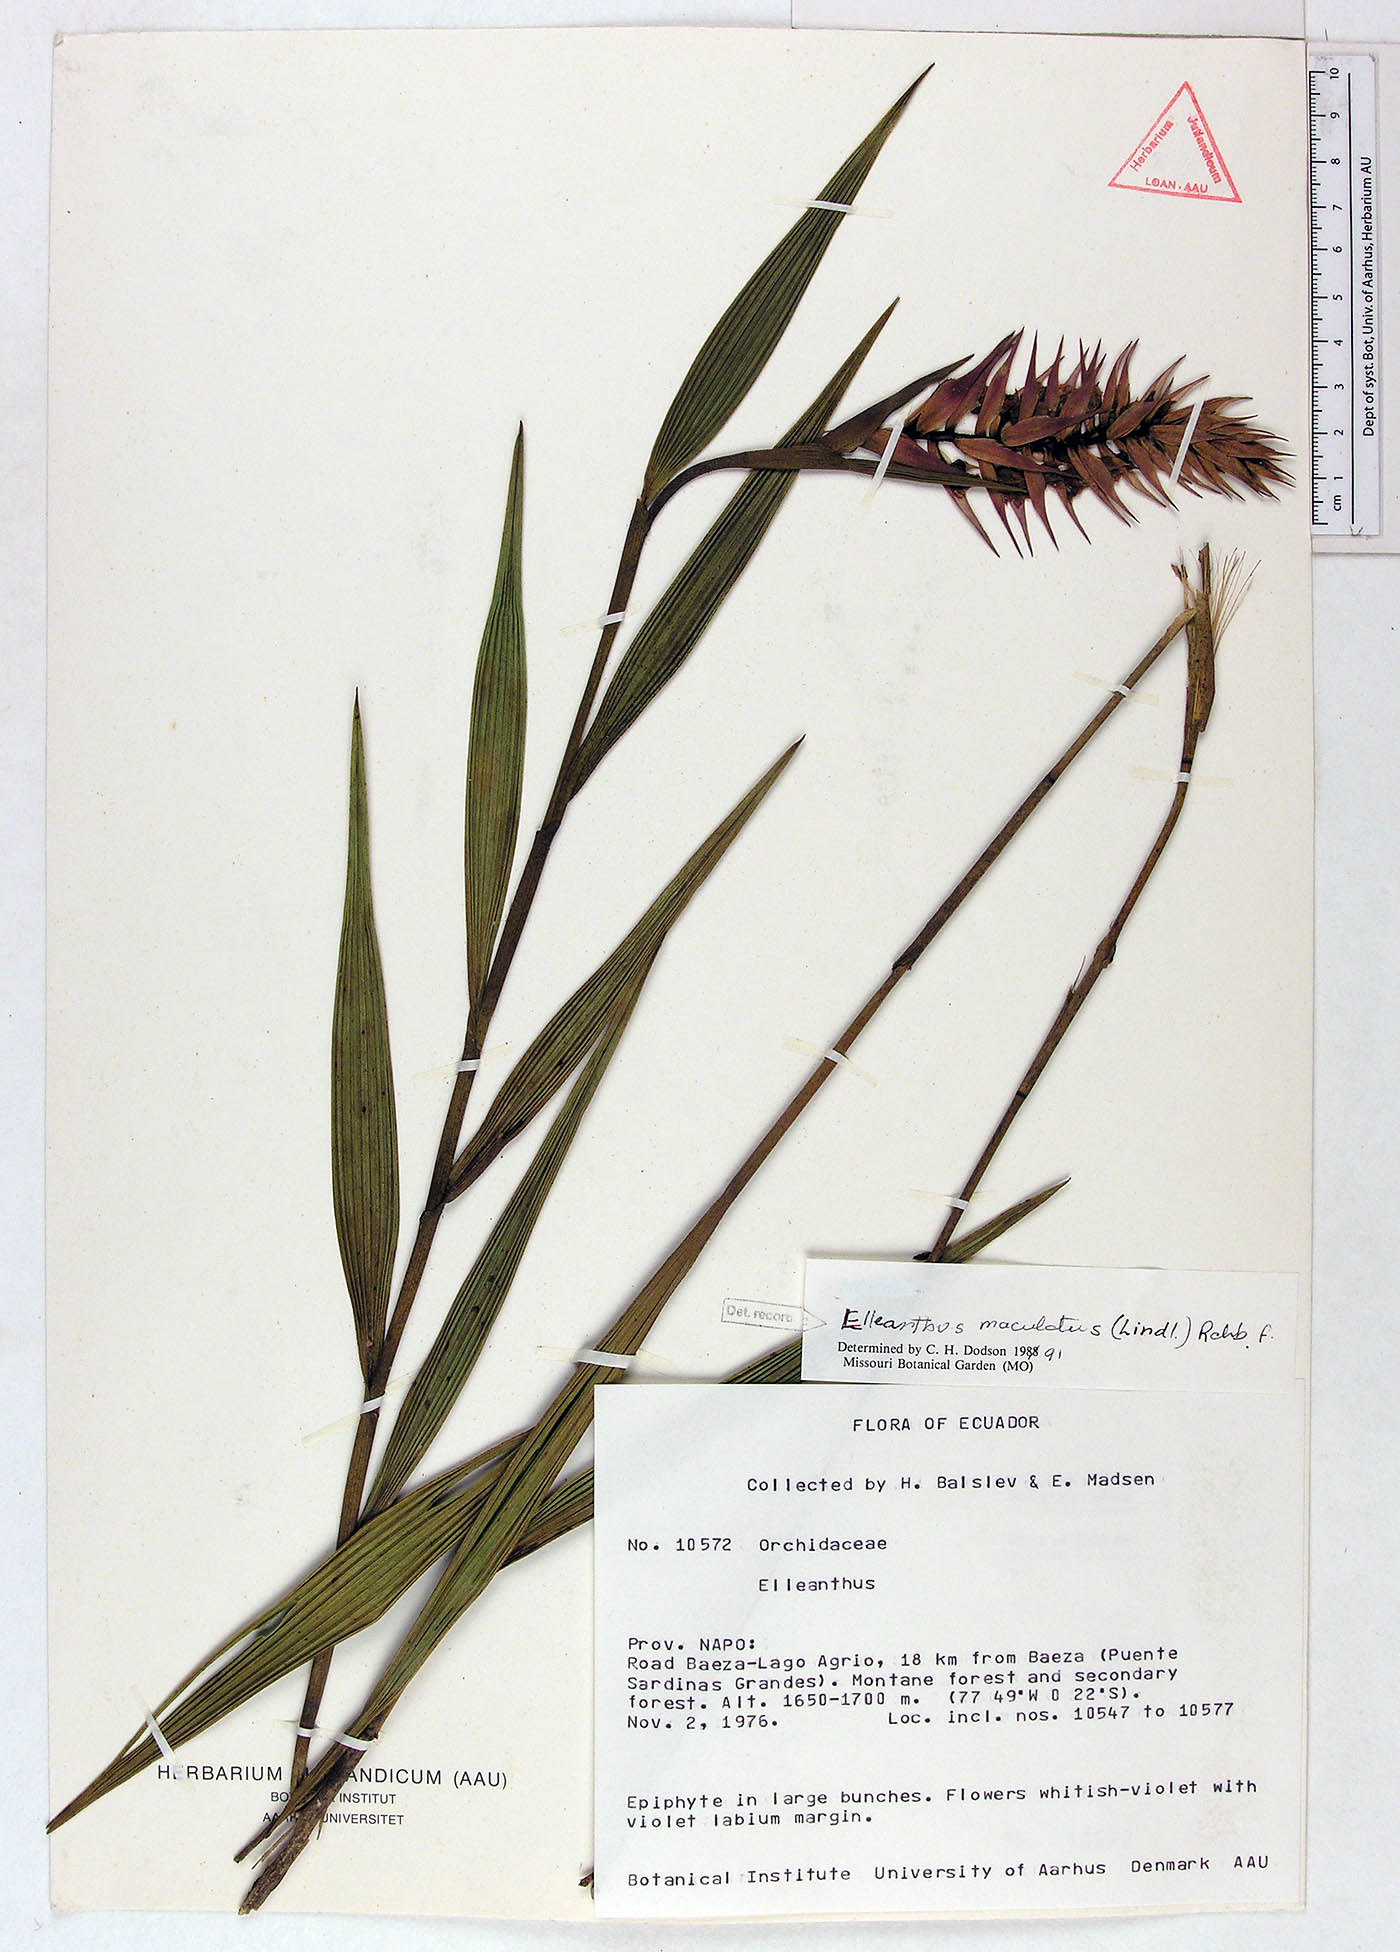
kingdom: Plantae
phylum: Tracheophyta
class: Liliopsida
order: Asparagales
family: Orchidaceae
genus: Elleanthus
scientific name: Elleanthus maculatus
